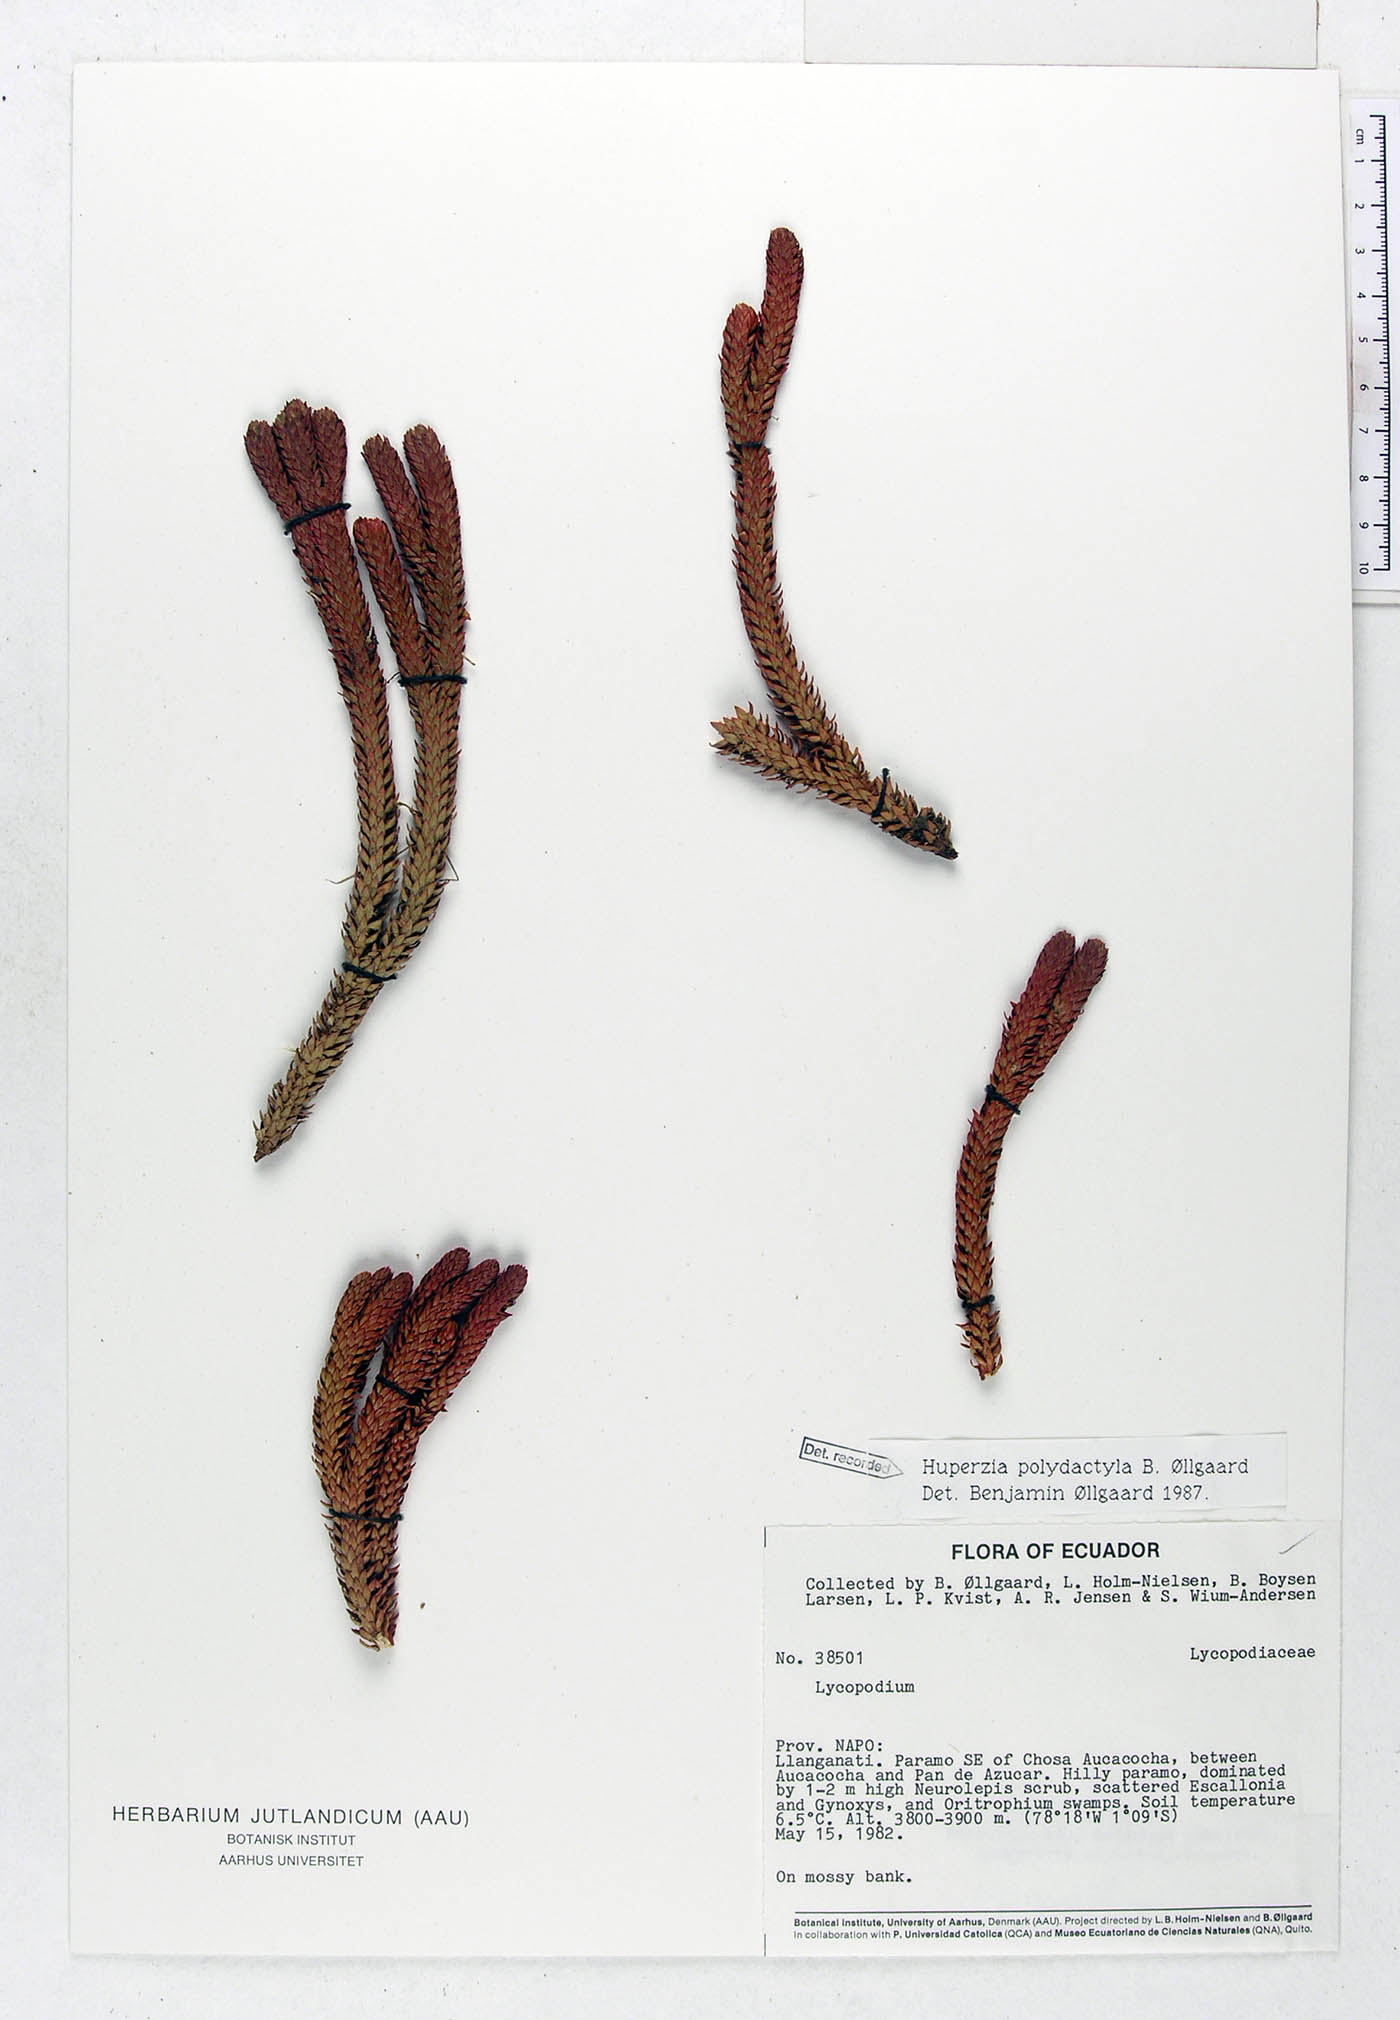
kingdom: Plantae
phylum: Tracheophyta
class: Lycopodiopsida
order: Lycopodiales
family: Lycopodiaceae
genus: Phlegmariurus
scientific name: Phlegmariurus polydactylus
